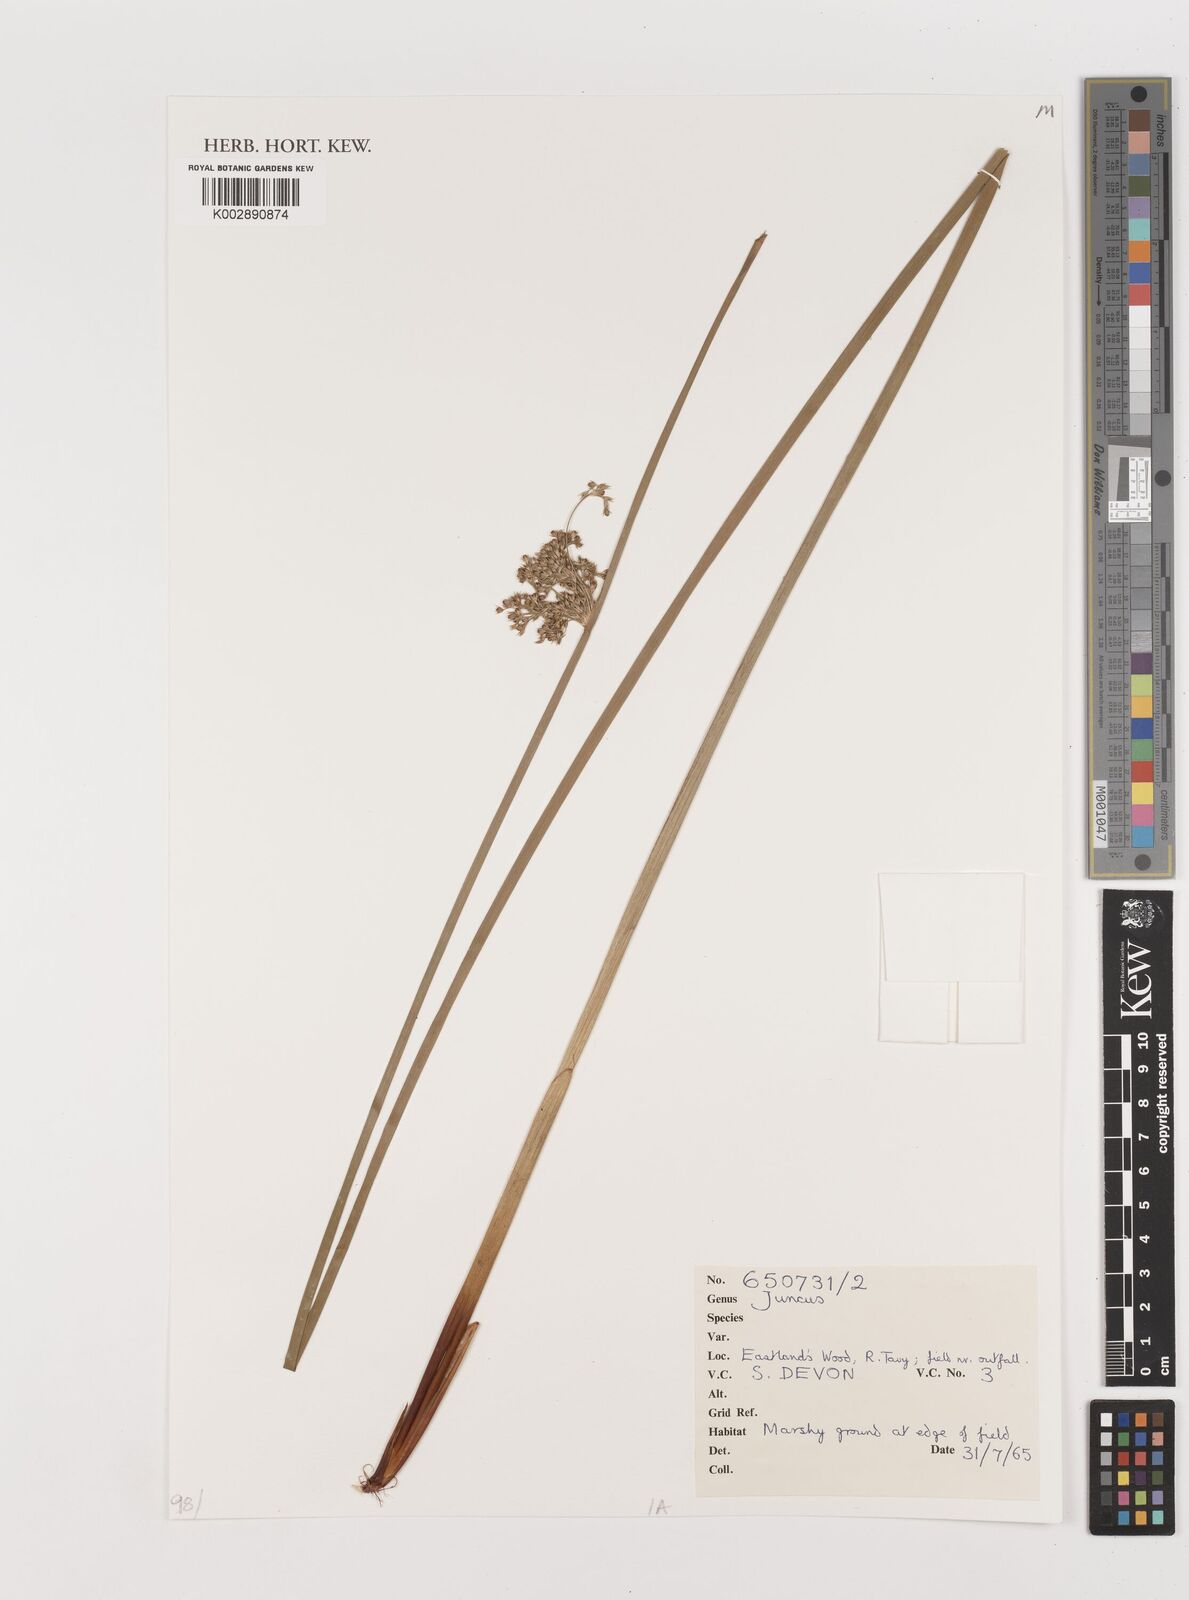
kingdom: Plantae
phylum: Tracheophyta
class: Liliopsida
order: Poales
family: Juncaceae
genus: Juncus
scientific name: Juncus
